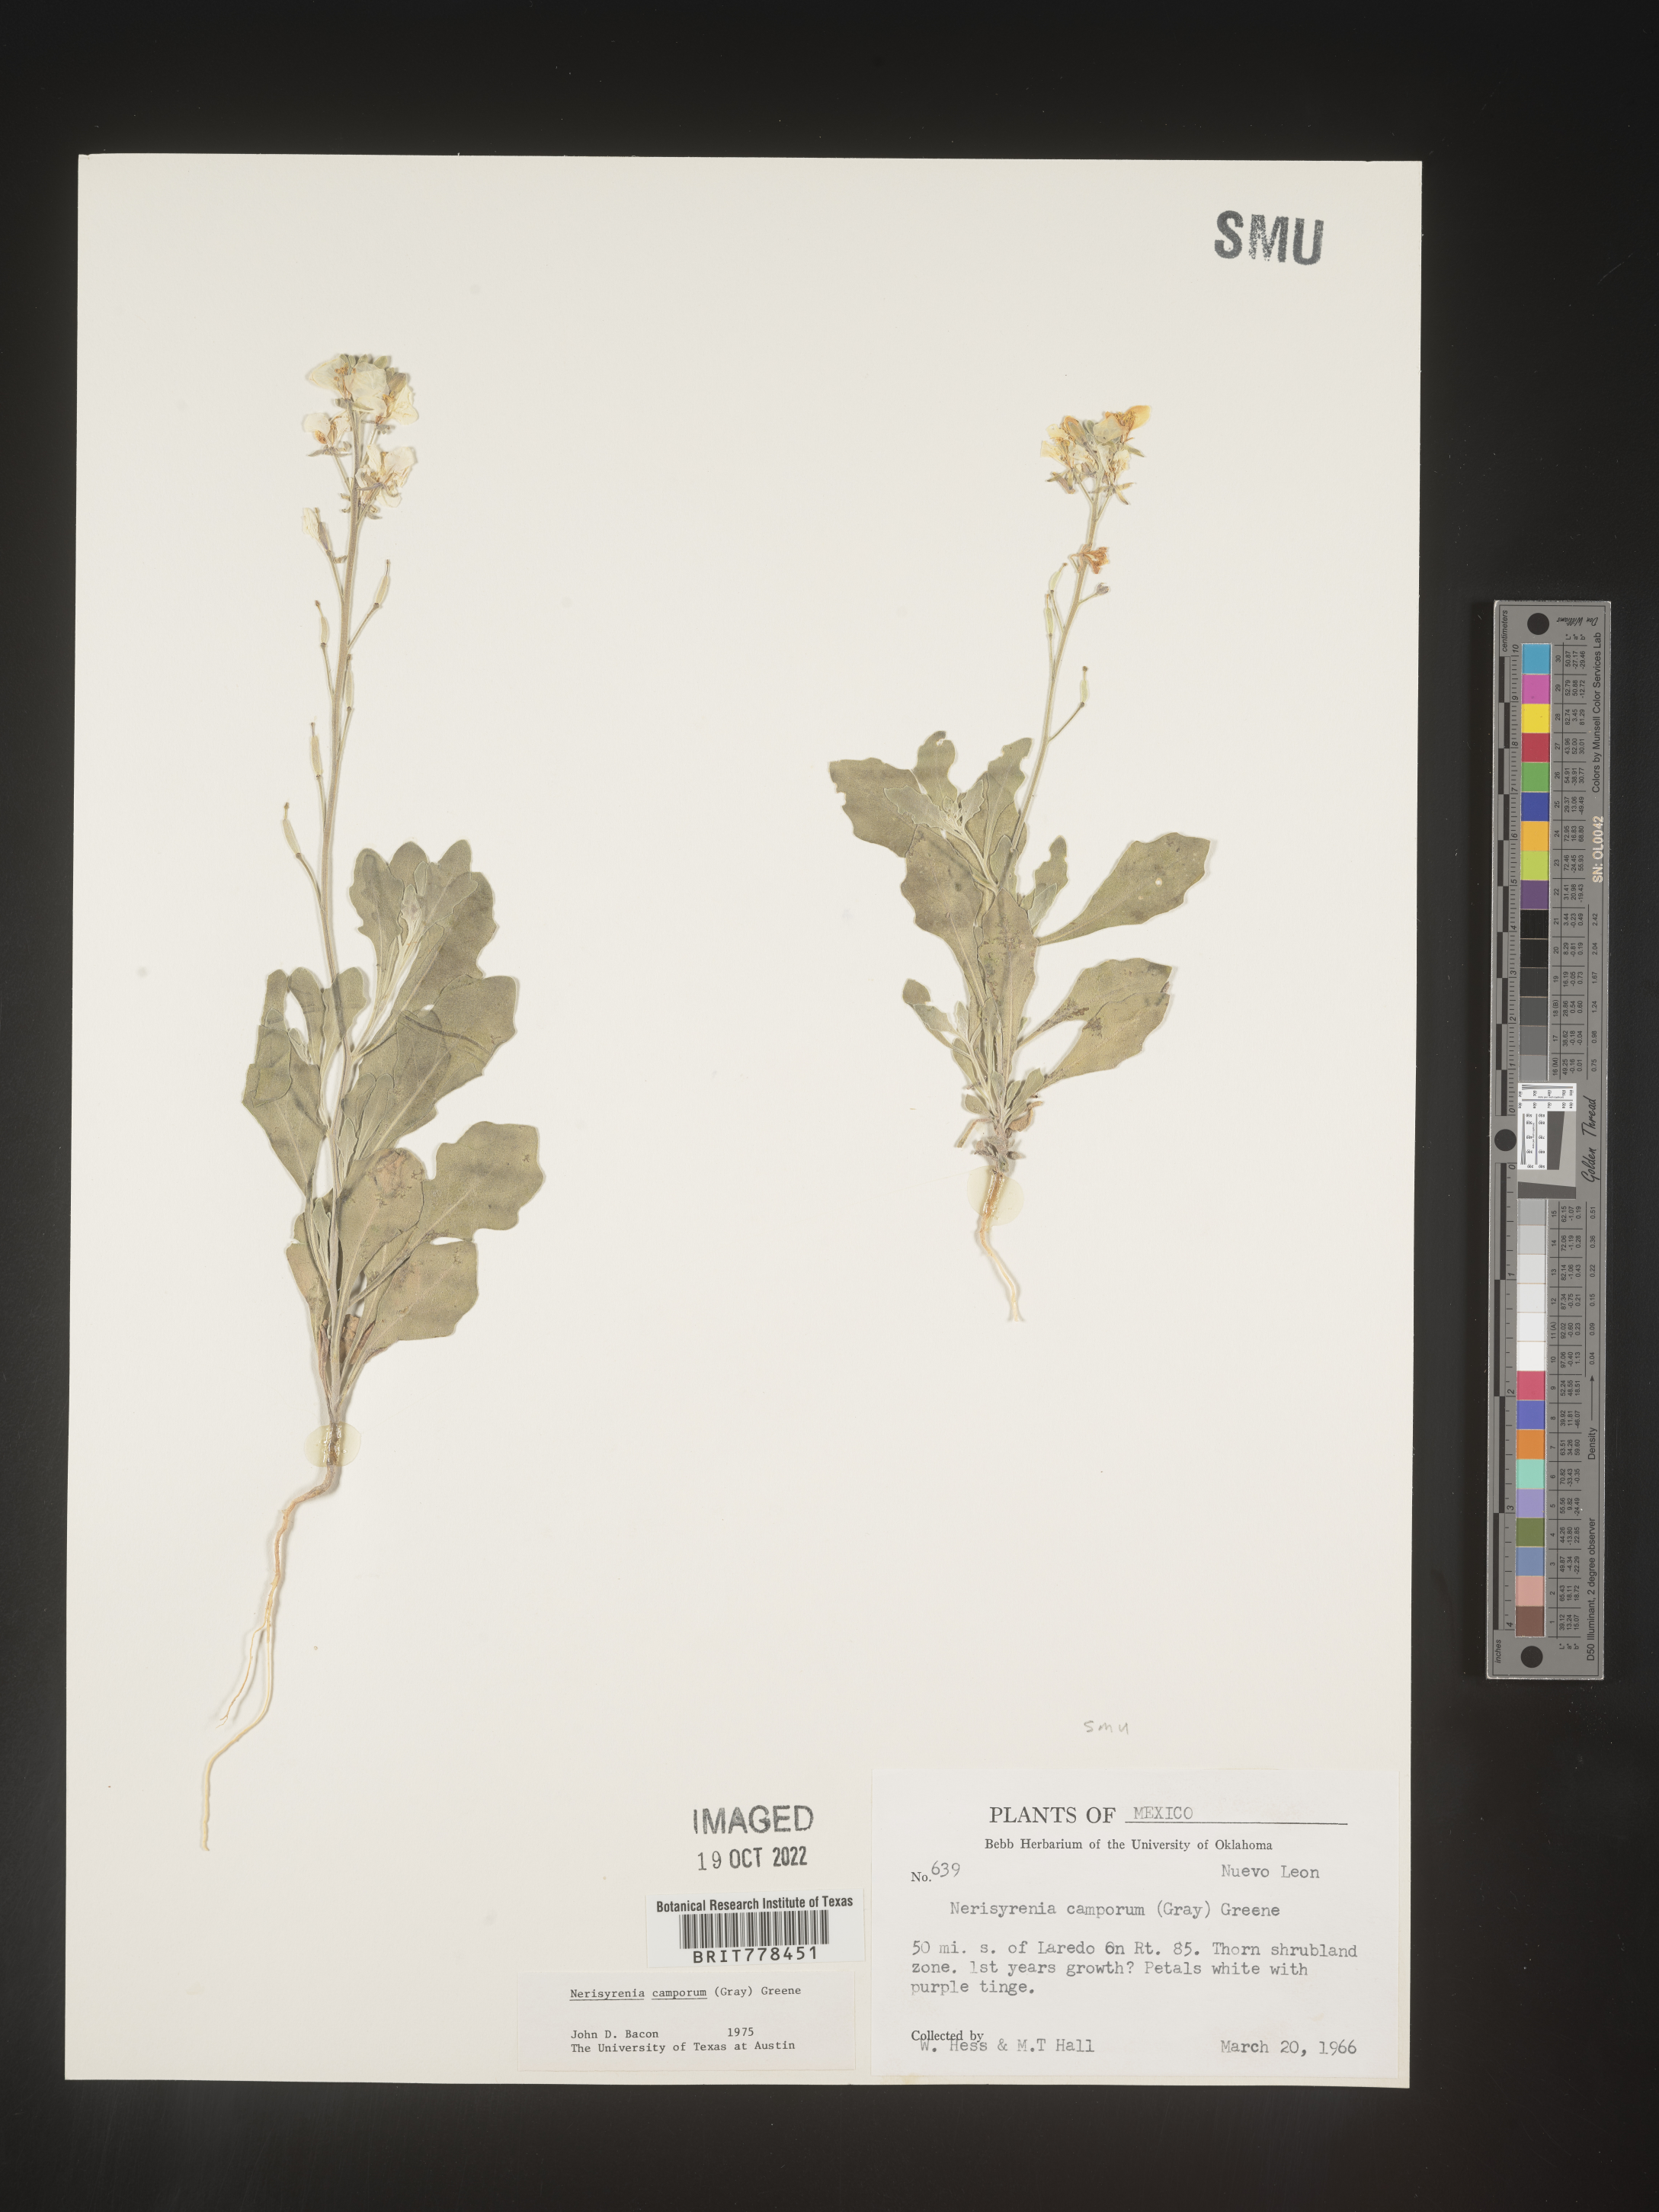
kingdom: Plantae
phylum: Tracheophyta
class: Magnoliopsida
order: Brassicales
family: Brassicaceae
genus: Nerisyrenia
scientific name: Nerisyrenia
